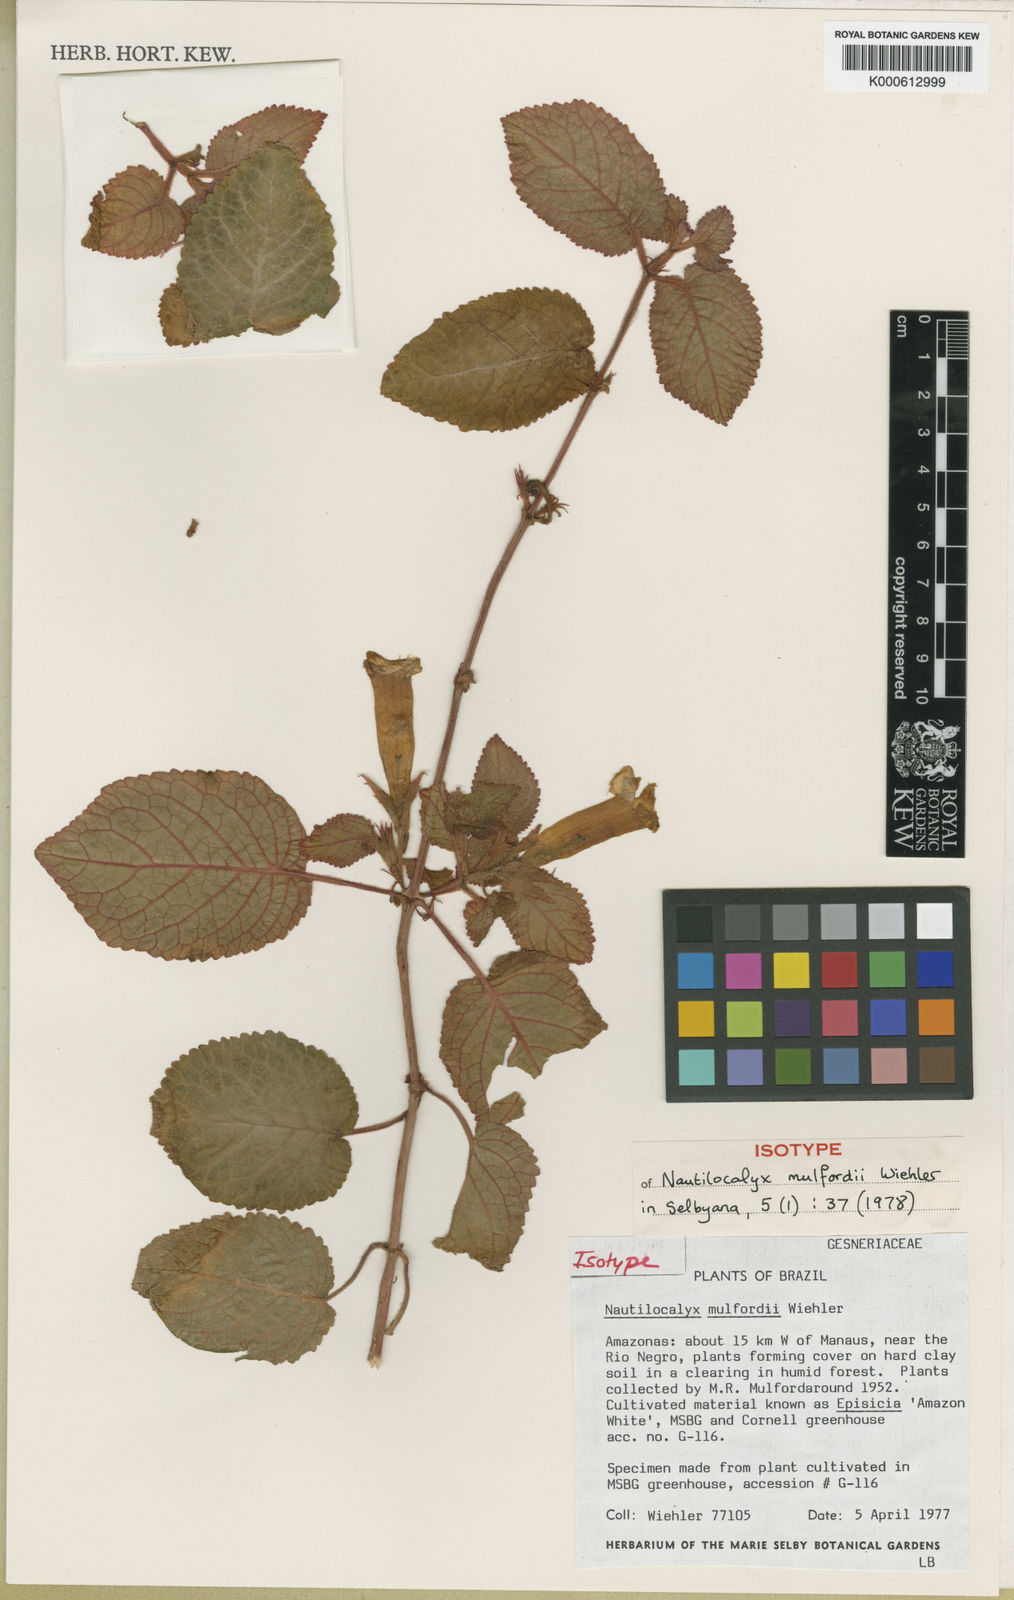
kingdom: Plantae
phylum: Tracheophyta
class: Magnoliopsida
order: Lamiales
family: Gesneriaceae
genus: Nautilocalyx
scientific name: Nautilocalyx mulfordii
